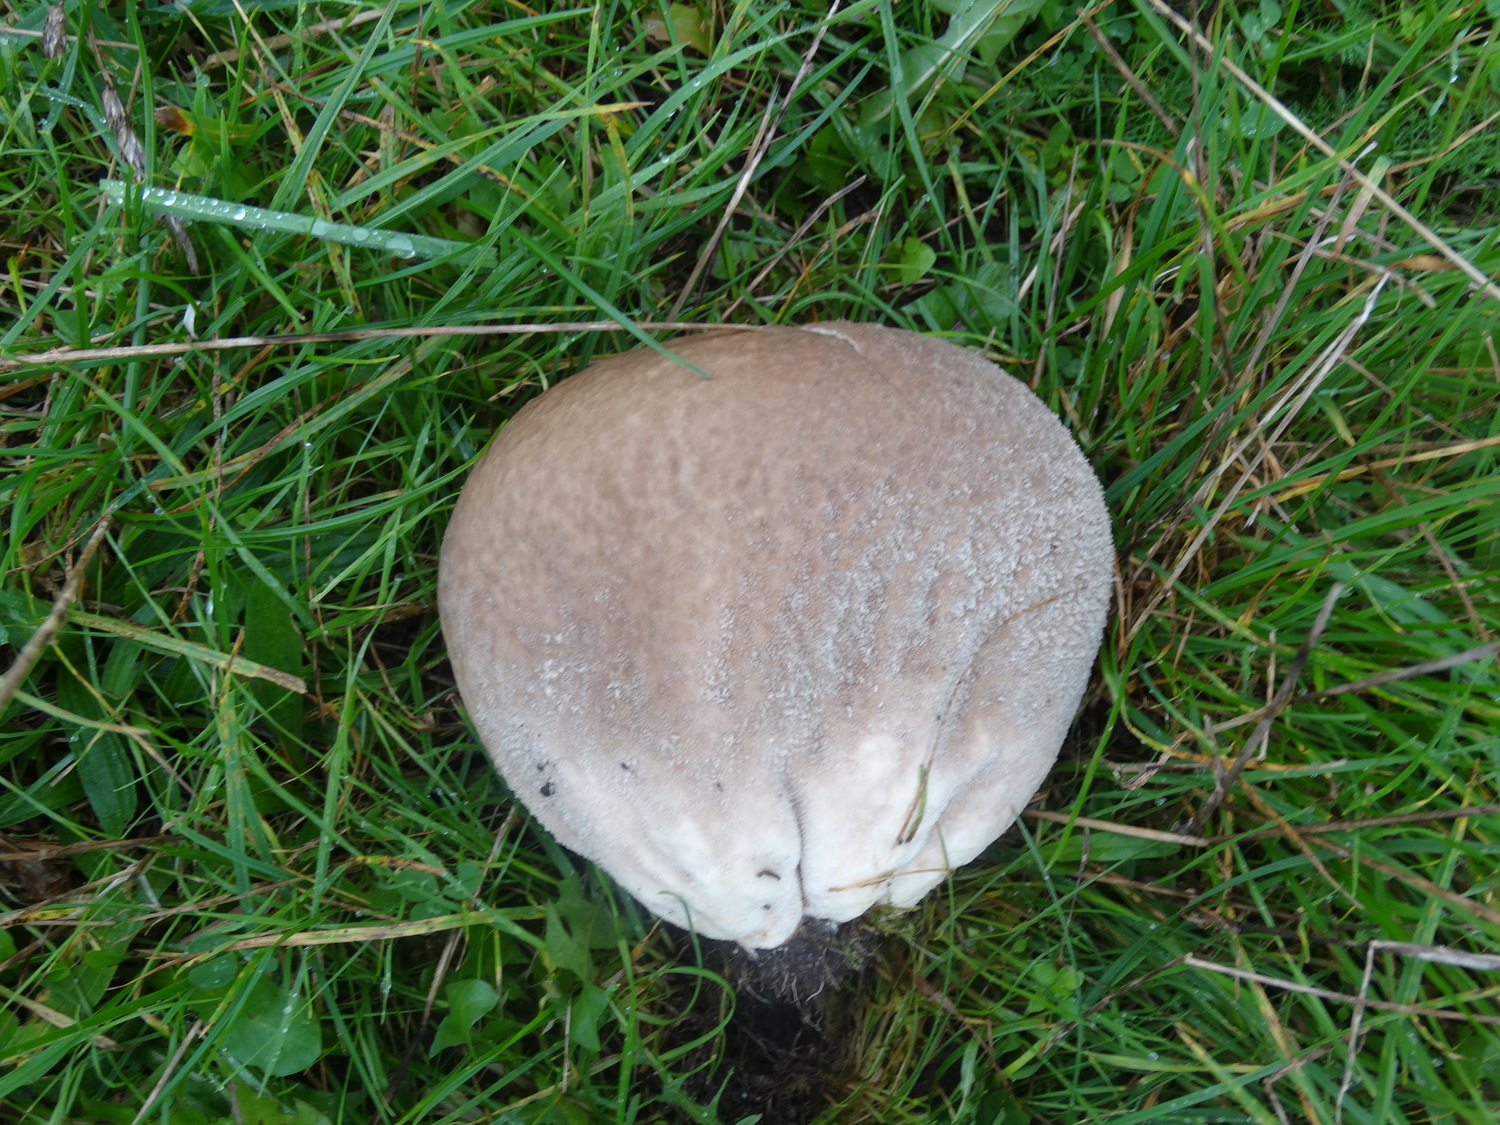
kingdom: Fungi
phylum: Basidiomycota
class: Agaricomycetes
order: Agaricales
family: Lycoperdaceae
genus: Bovistella
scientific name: Bovistella utriformis
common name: skællet støvbold
